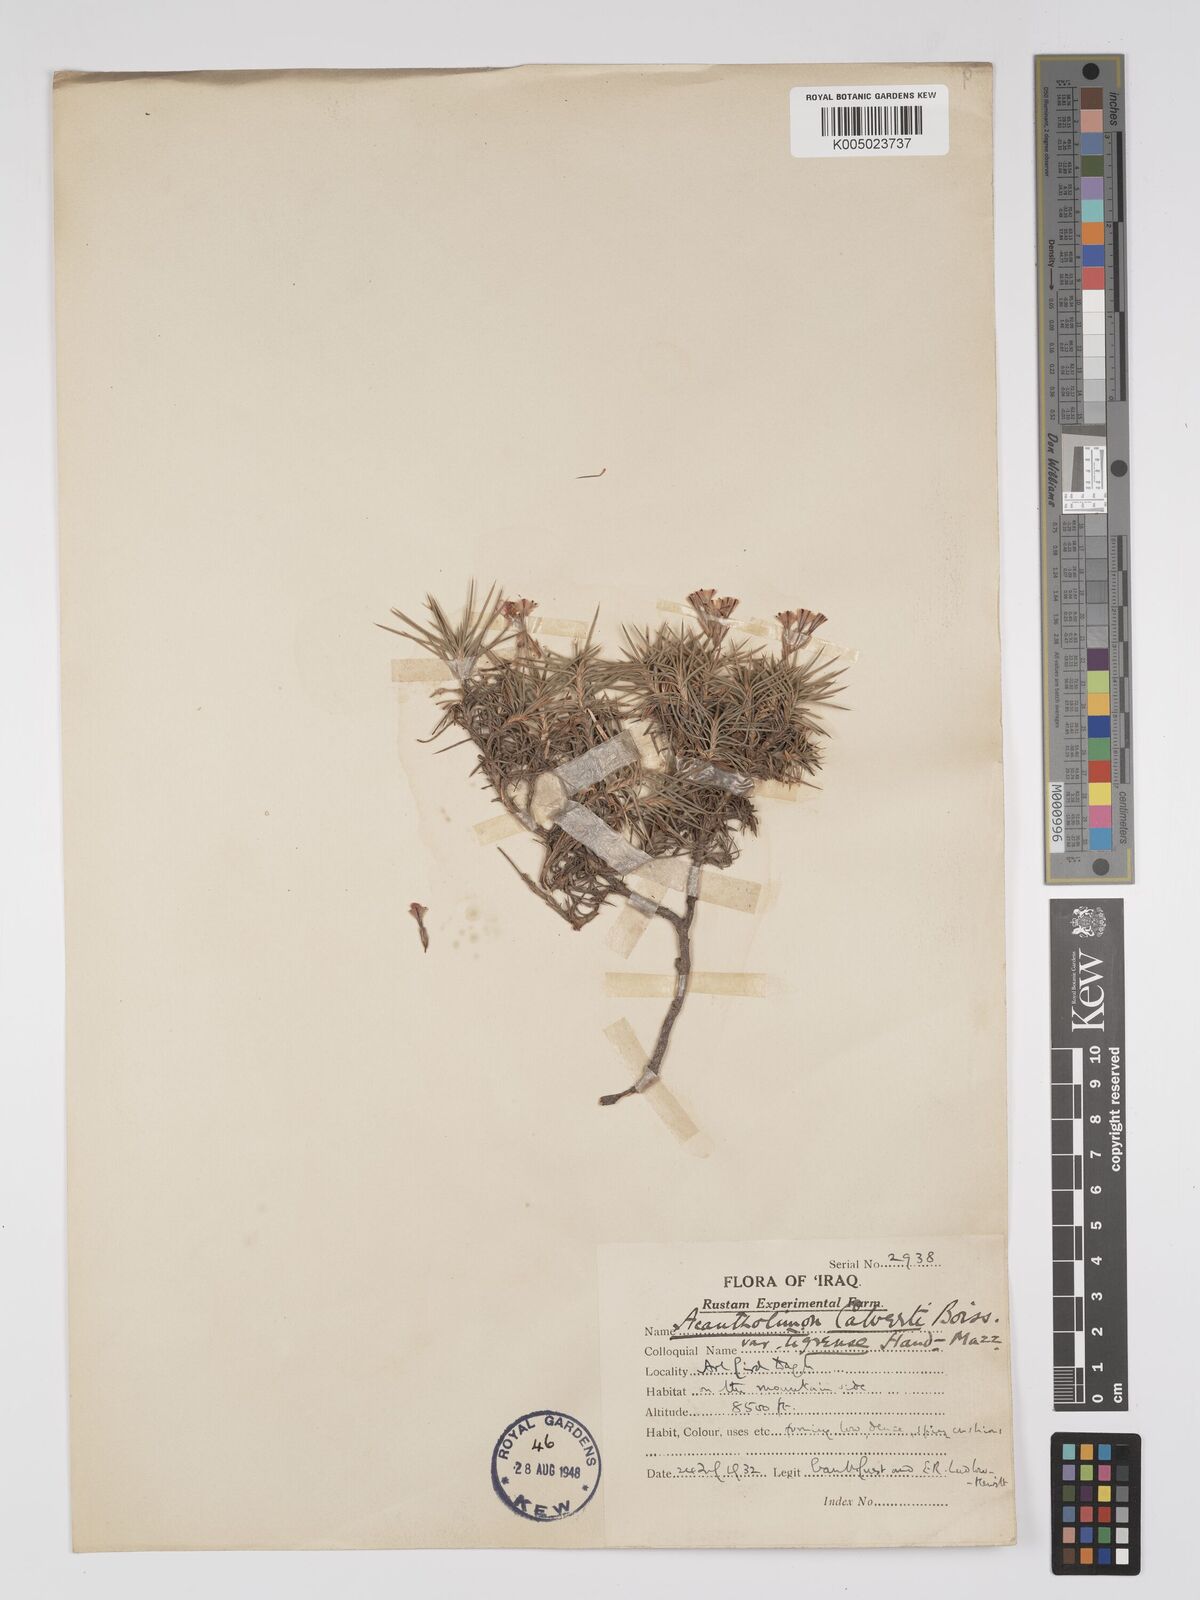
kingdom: Plantae
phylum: Tracheophyta
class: Magnoliopsida
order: Caryophyllales
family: Plumbaginaceae
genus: Acantholimon
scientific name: Acantholimon calvertii
